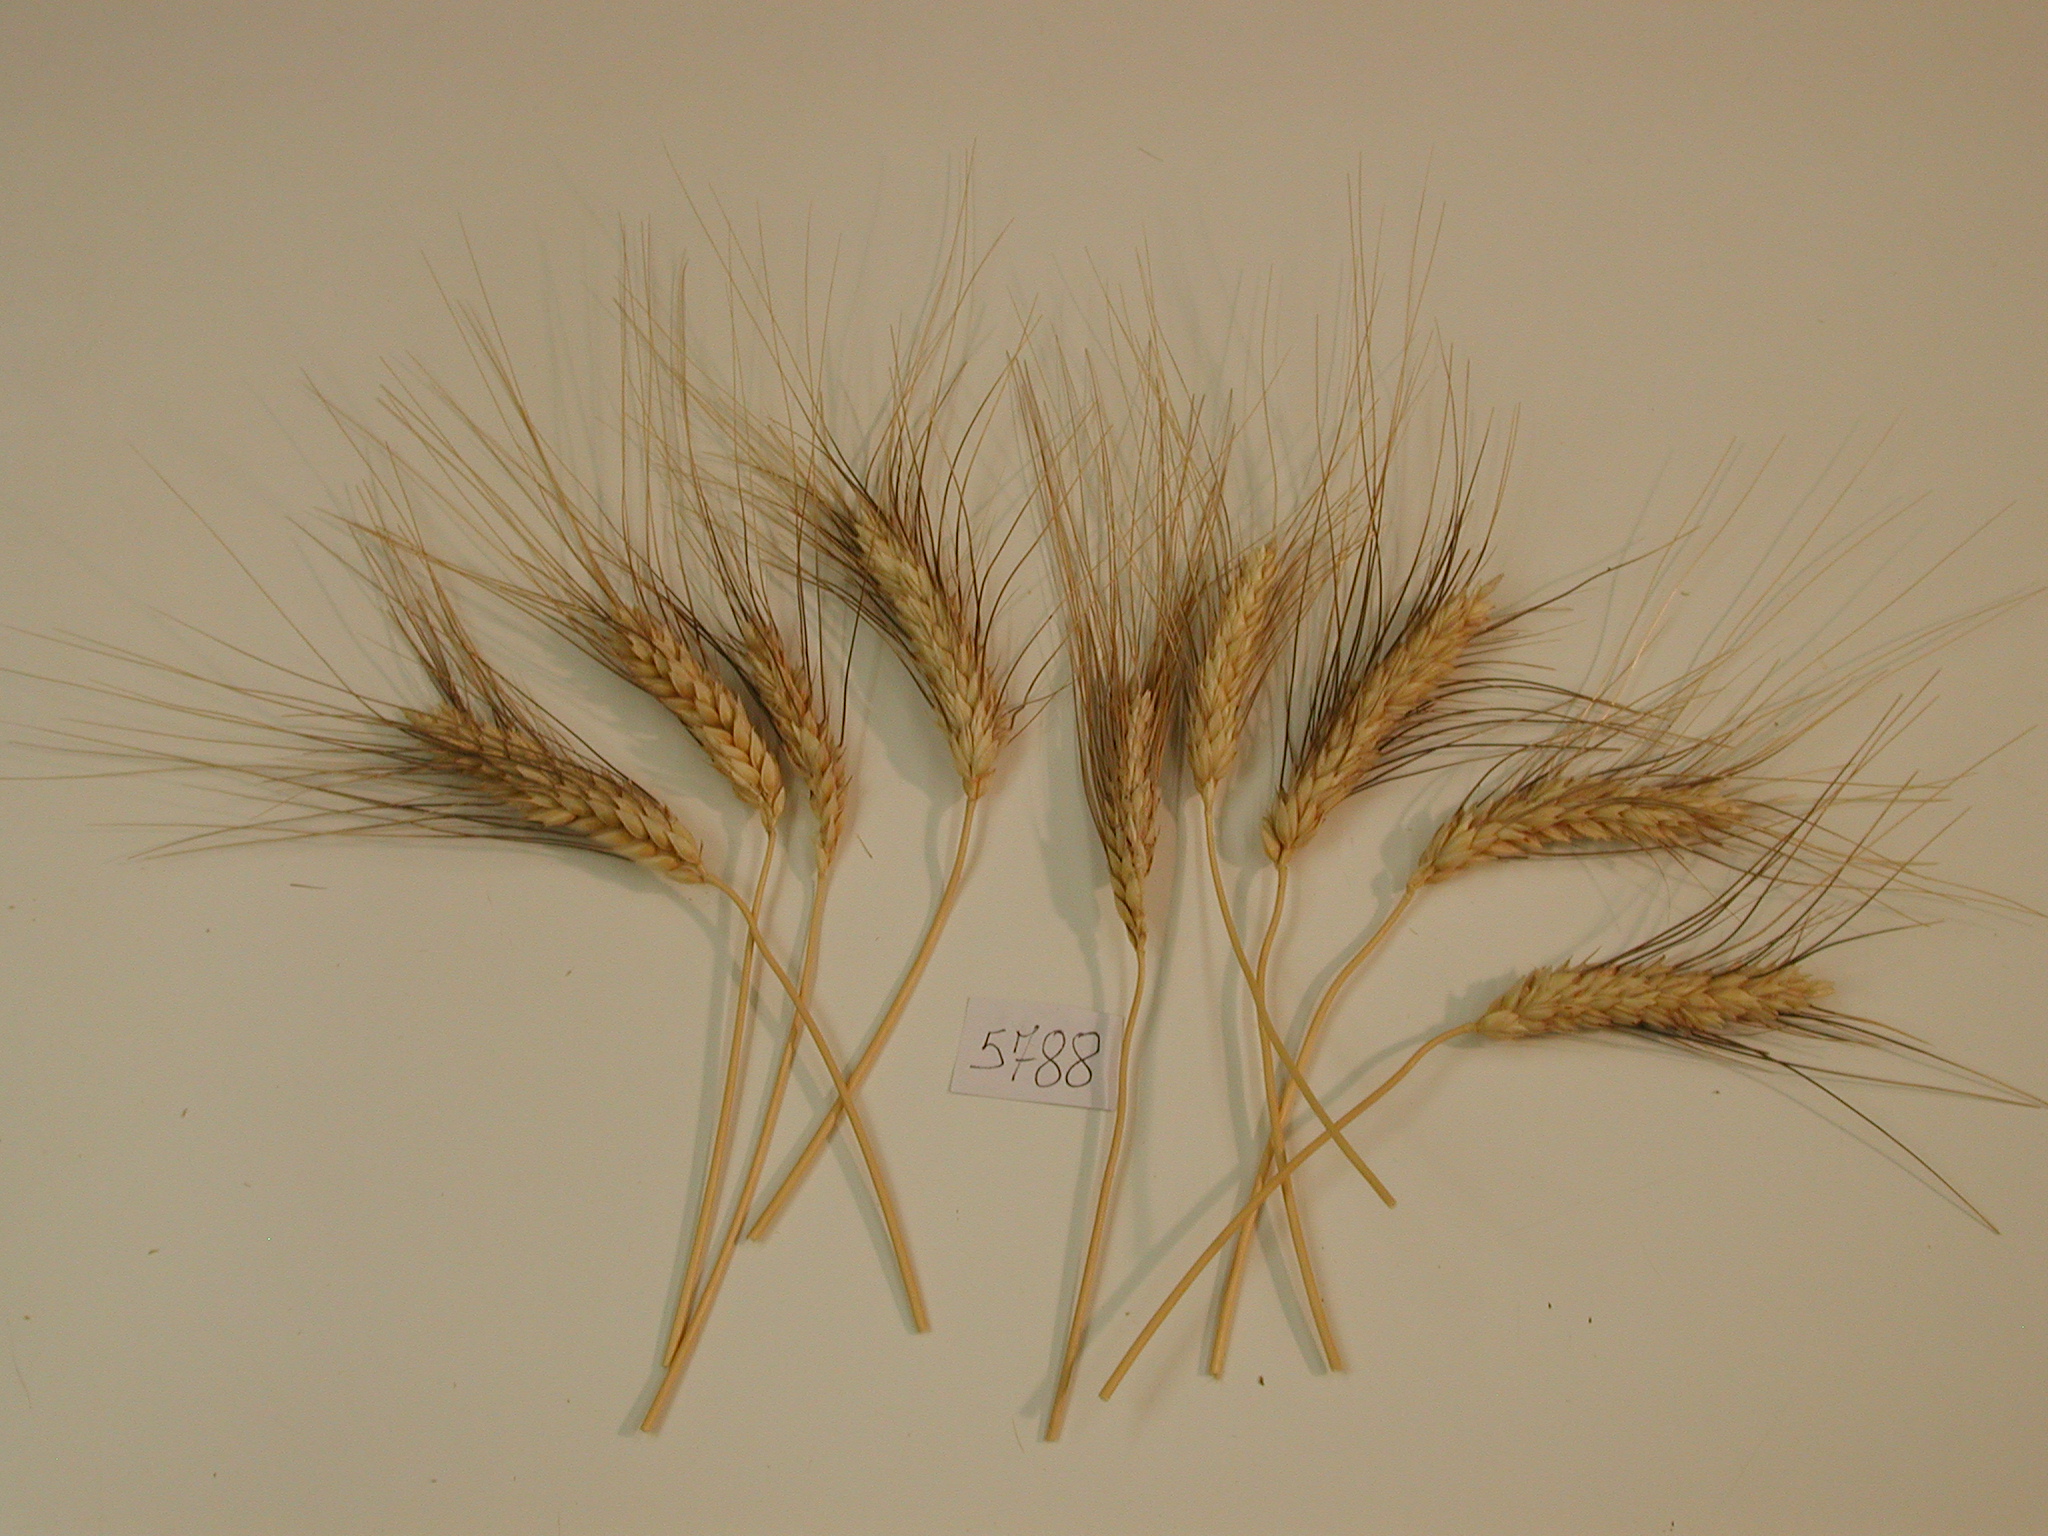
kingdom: Plantae
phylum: Tracheophyta
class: Liliopsida
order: Poales
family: Poaceae
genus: Triticum
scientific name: Triticum aestivum
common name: Wheat
